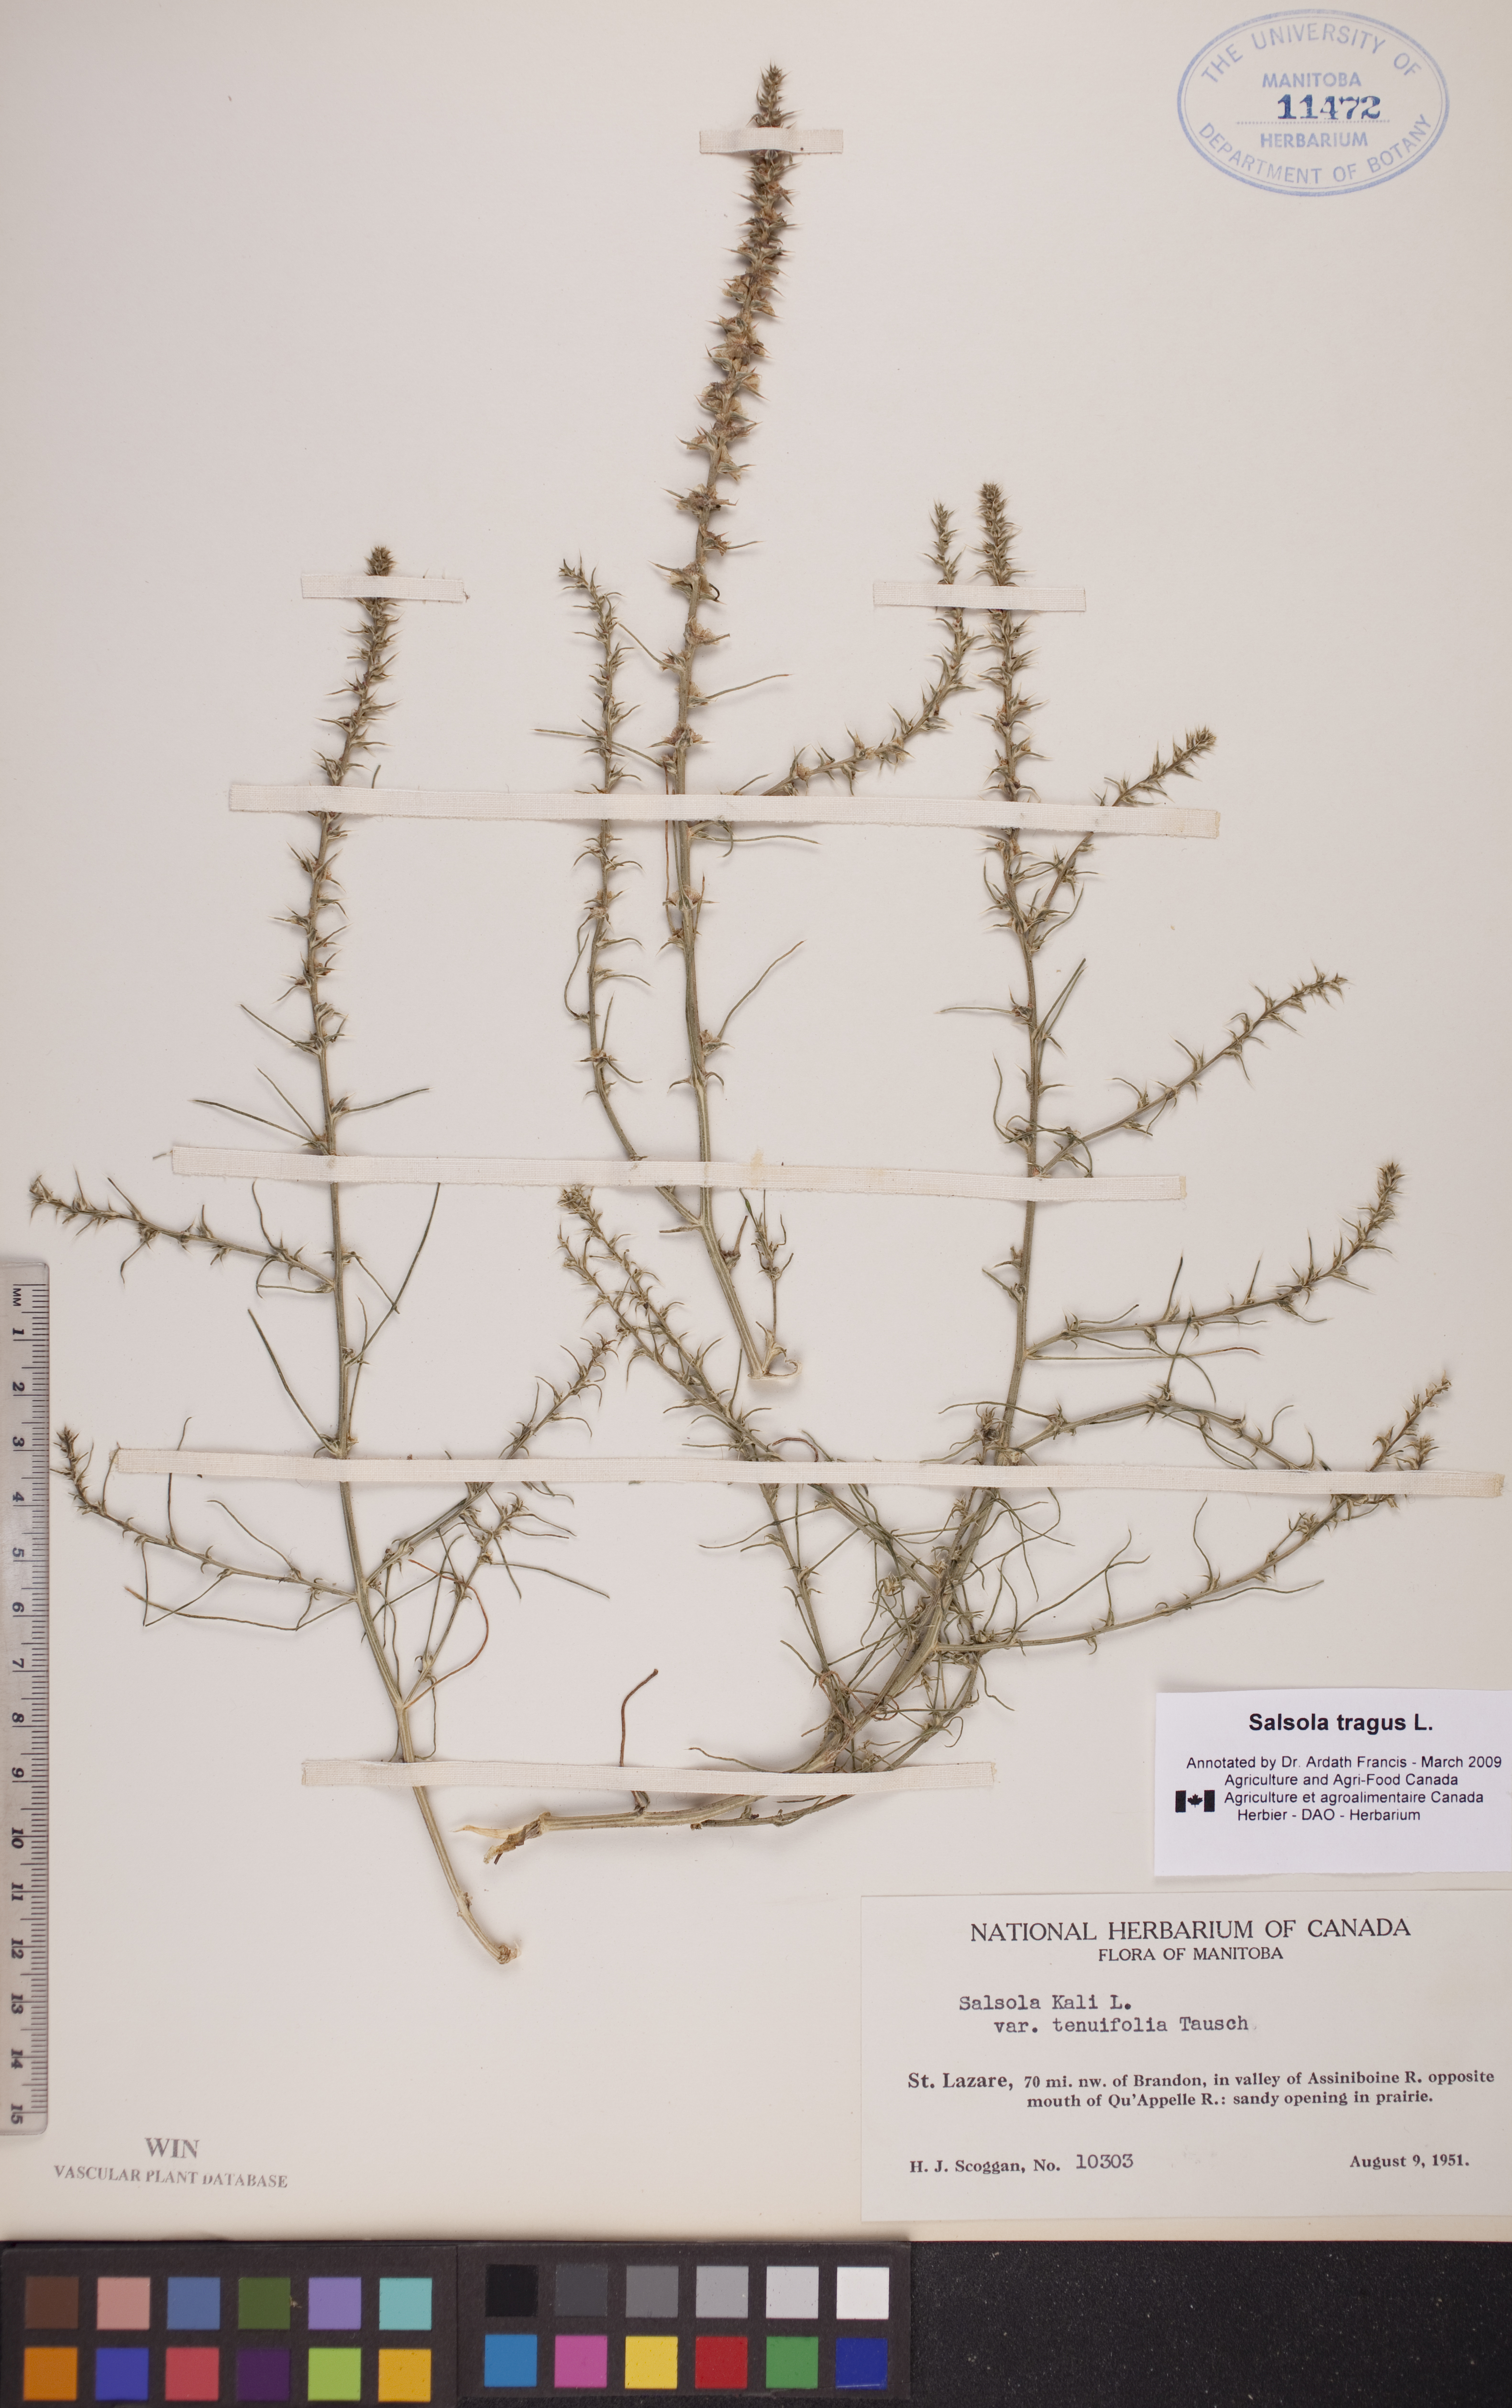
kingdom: Plantae
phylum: Tracheophyta
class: Magnoliopsida
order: Caryophyllales
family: Amaranthaceae
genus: Salsola
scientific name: Salsola tragus
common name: Prickly russian thistle
